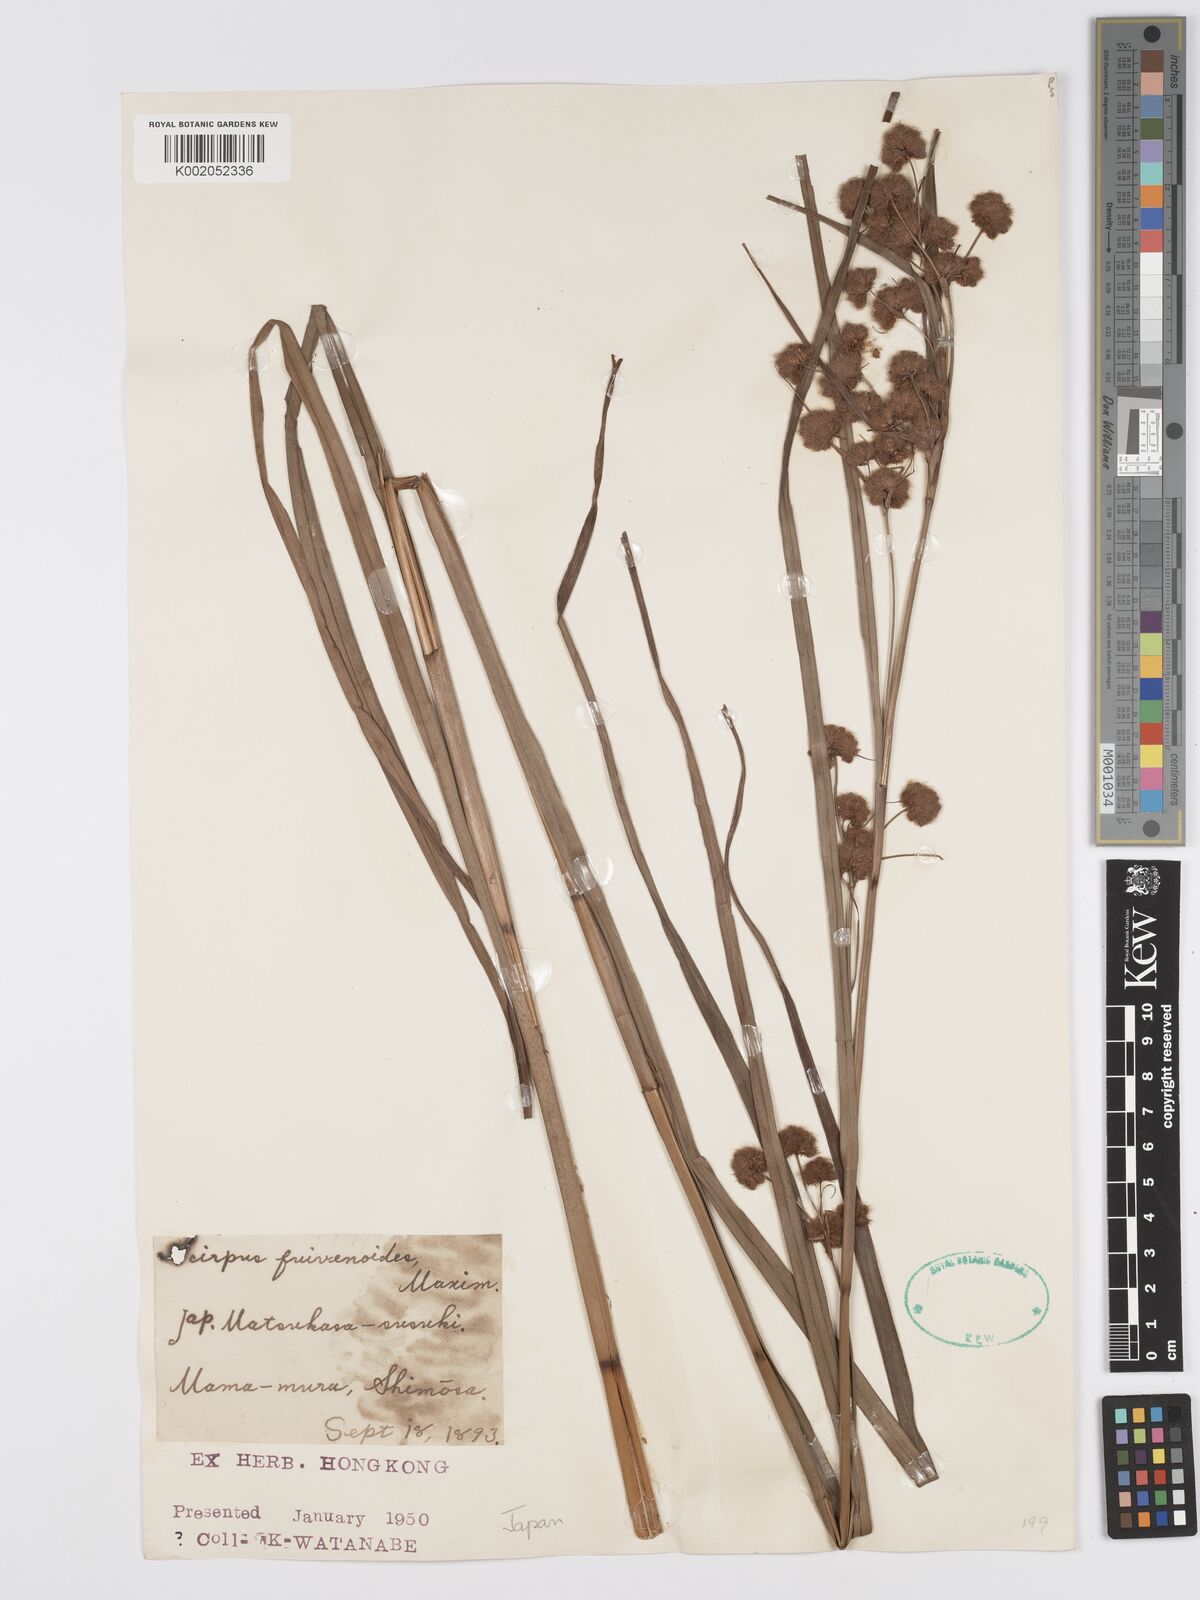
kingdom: Plantae
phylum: Tracheophyta
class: Liliopsida
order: Poales
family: Cyperaceae
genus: Scirpus
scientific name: Scirpus fuirenoides
